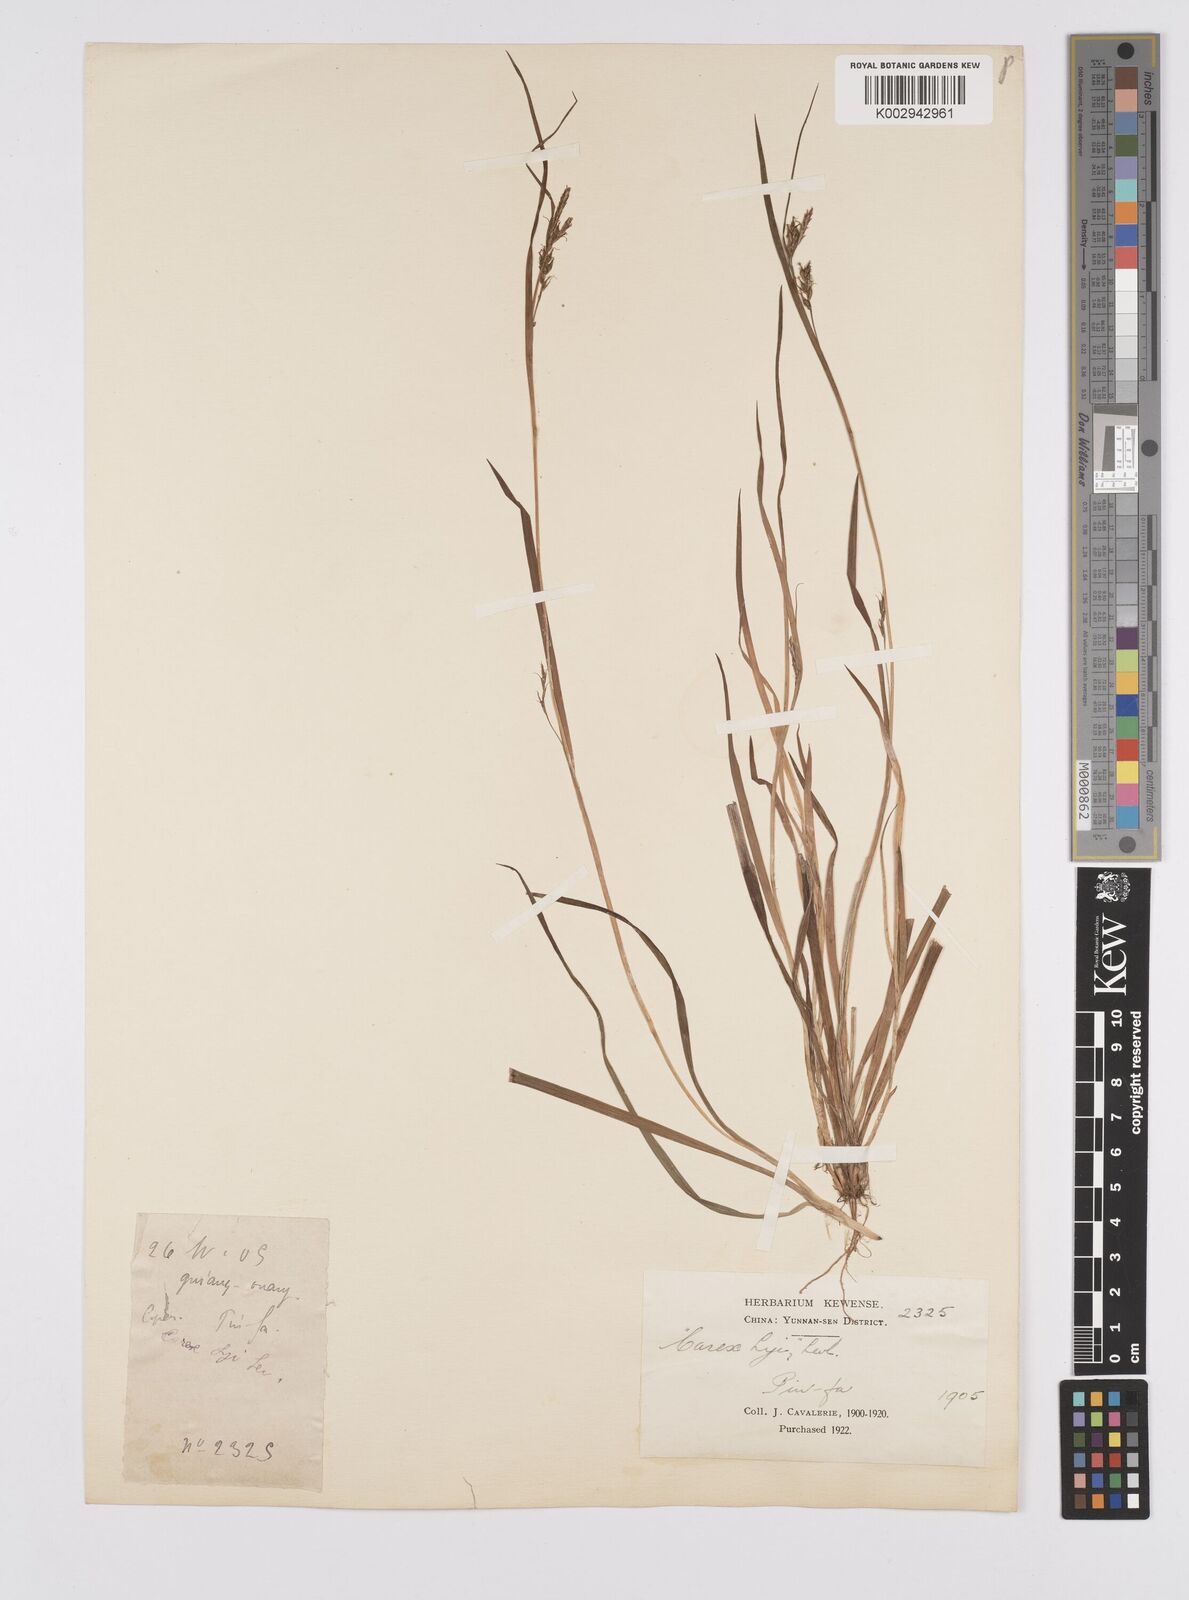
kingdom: Plantae
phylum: Tracheophyta
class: Liliopsida
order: Poales
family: Cyperaceae
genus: Carex
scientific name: Carex oxyphylla
